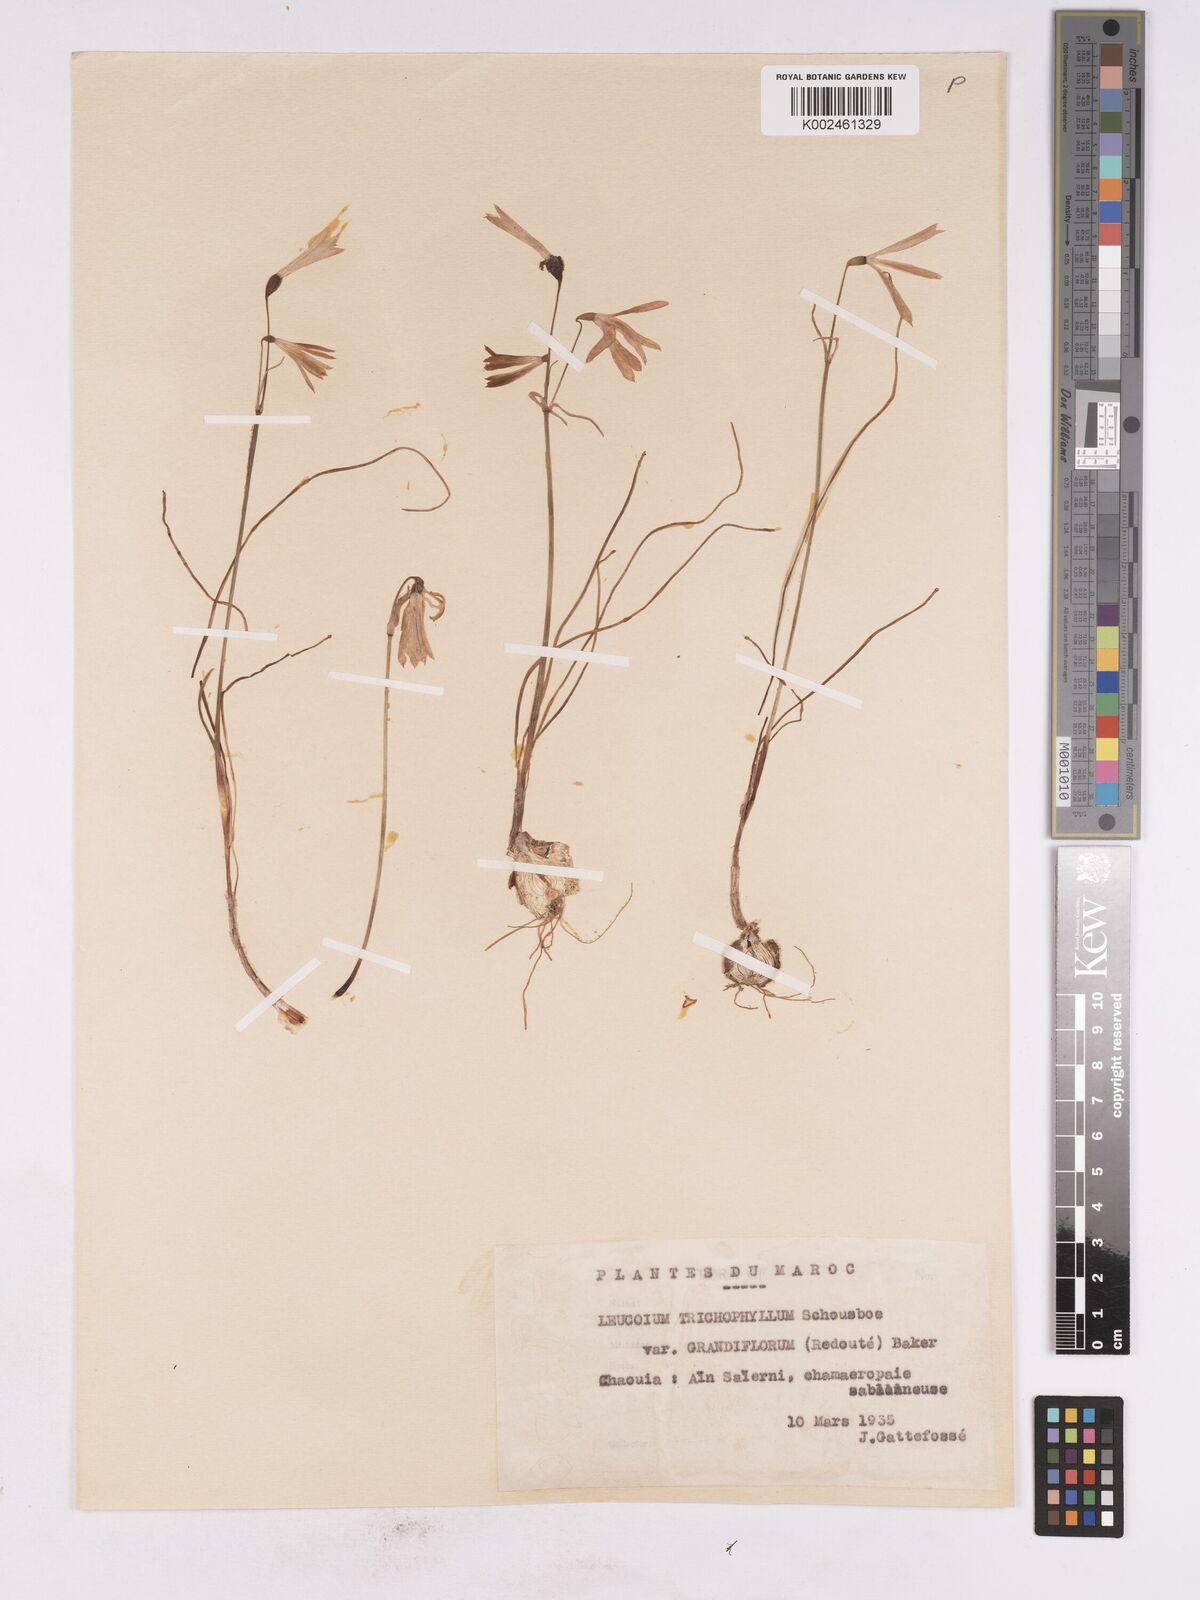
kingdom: Plantae
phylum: Tracheophyta
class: Liliopsida
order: Asparagales
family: Amaryllidaceae
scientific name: Amaryllidaceae
